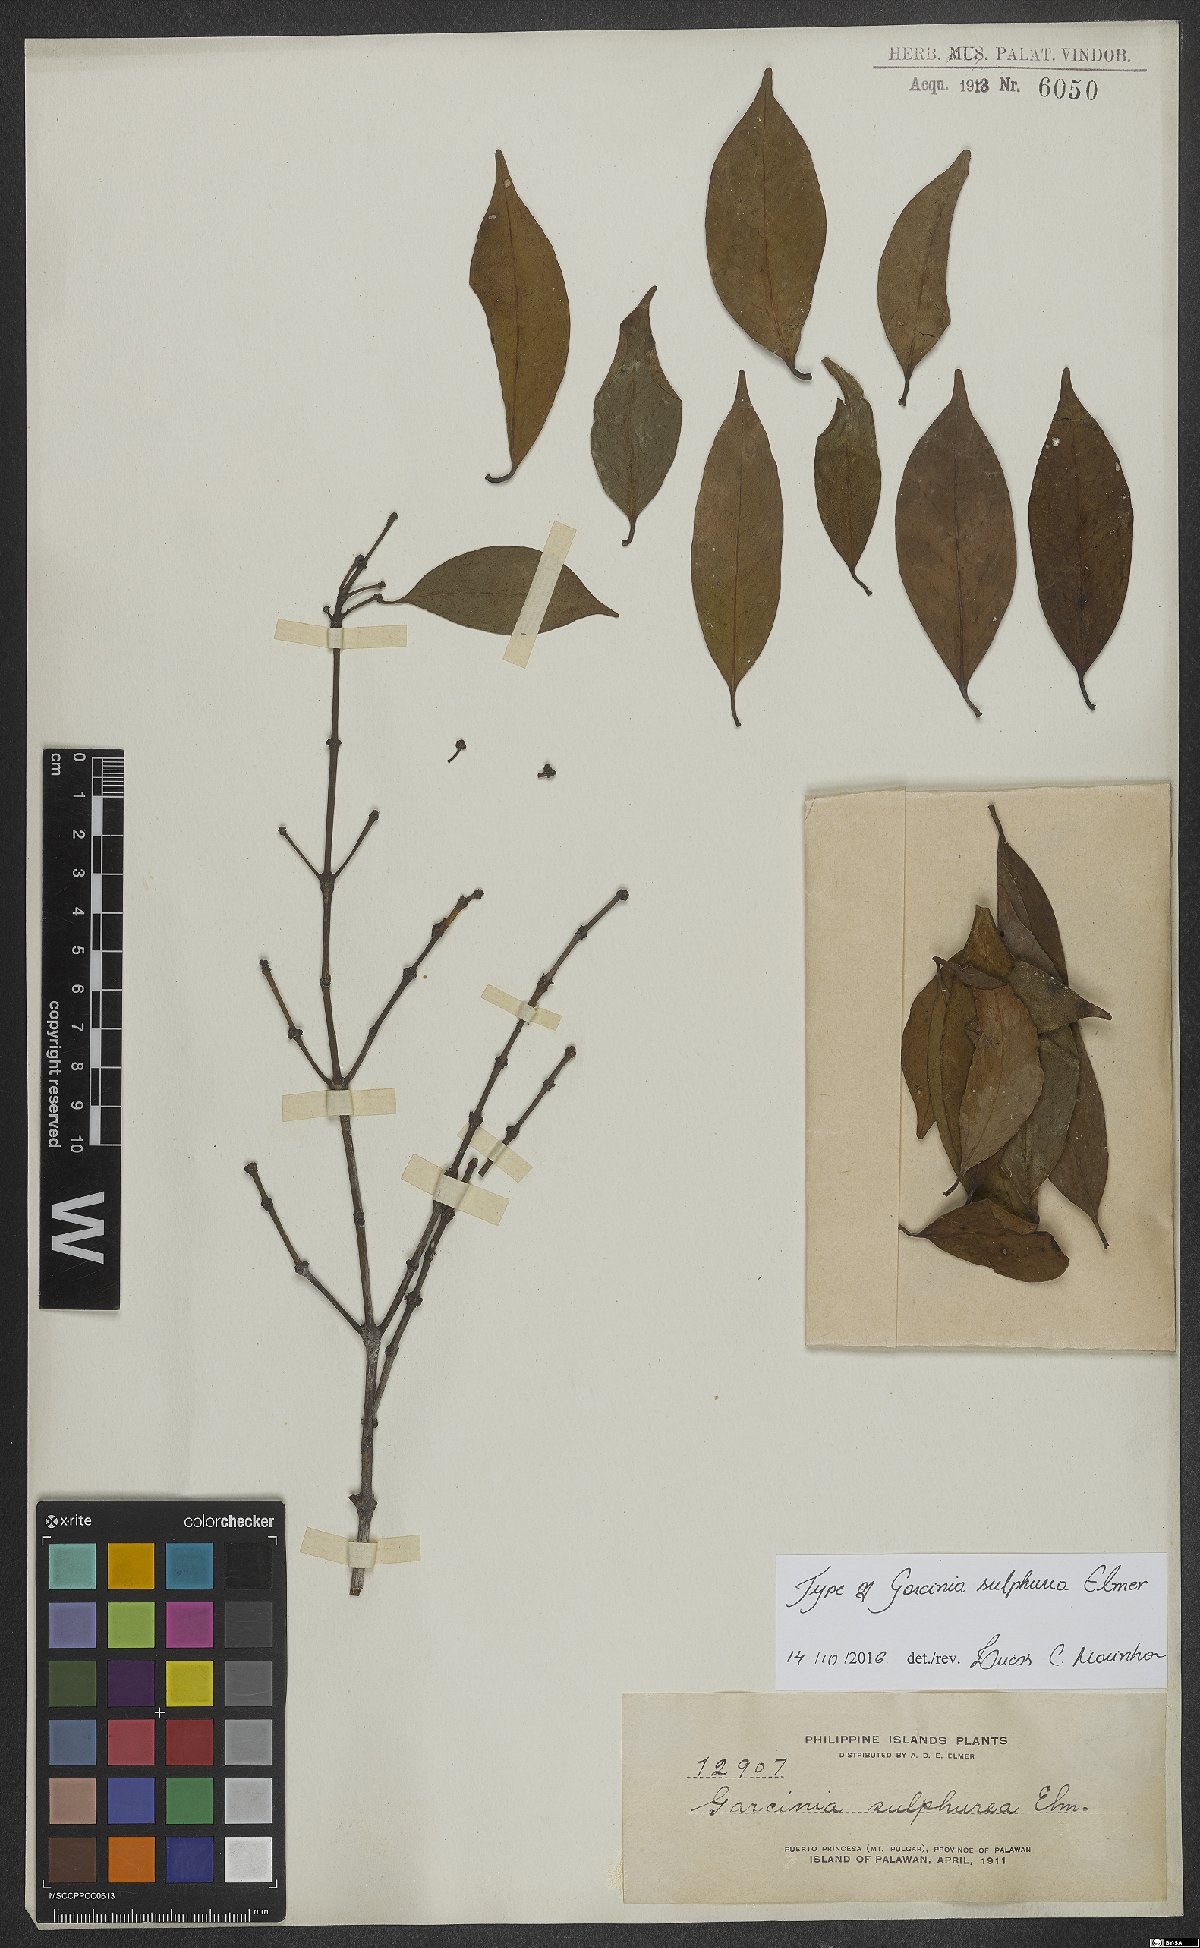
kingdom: Plantae
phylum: Tracheophyta
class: Magnoliopsida
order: Malpighiales
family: Clusiaceae
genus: Garcinia
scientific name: Garcinia sulphurea
